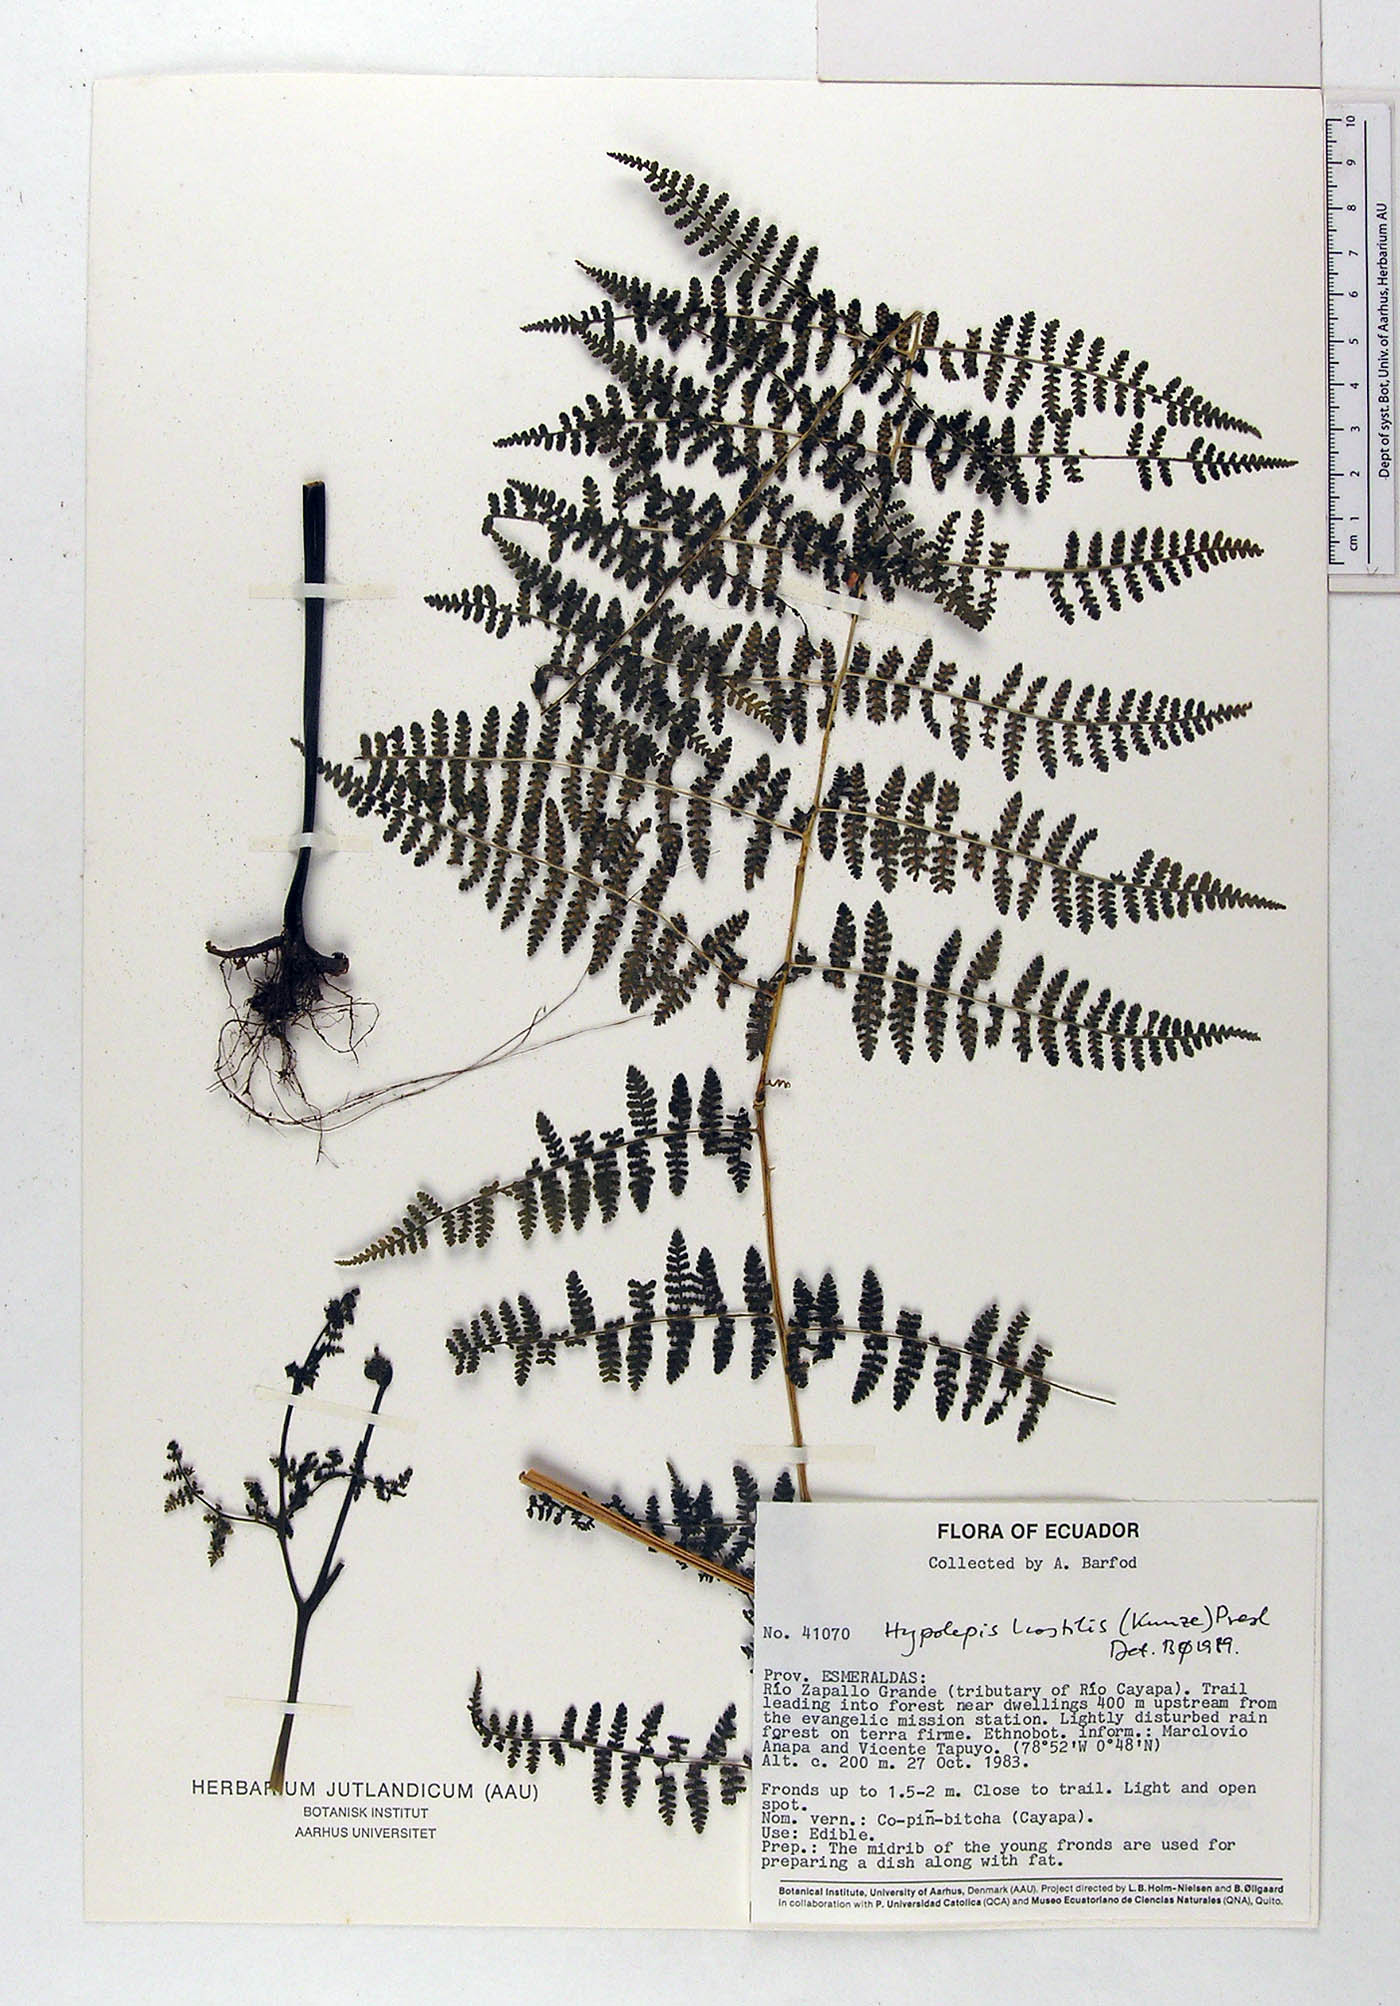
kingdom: Plantae
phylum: Tracheophyta
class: Polypodiopsida
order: Polypodiales
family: Dennstaedtiaceae
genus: Hypolepis
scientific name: Hypolepis hostilis
